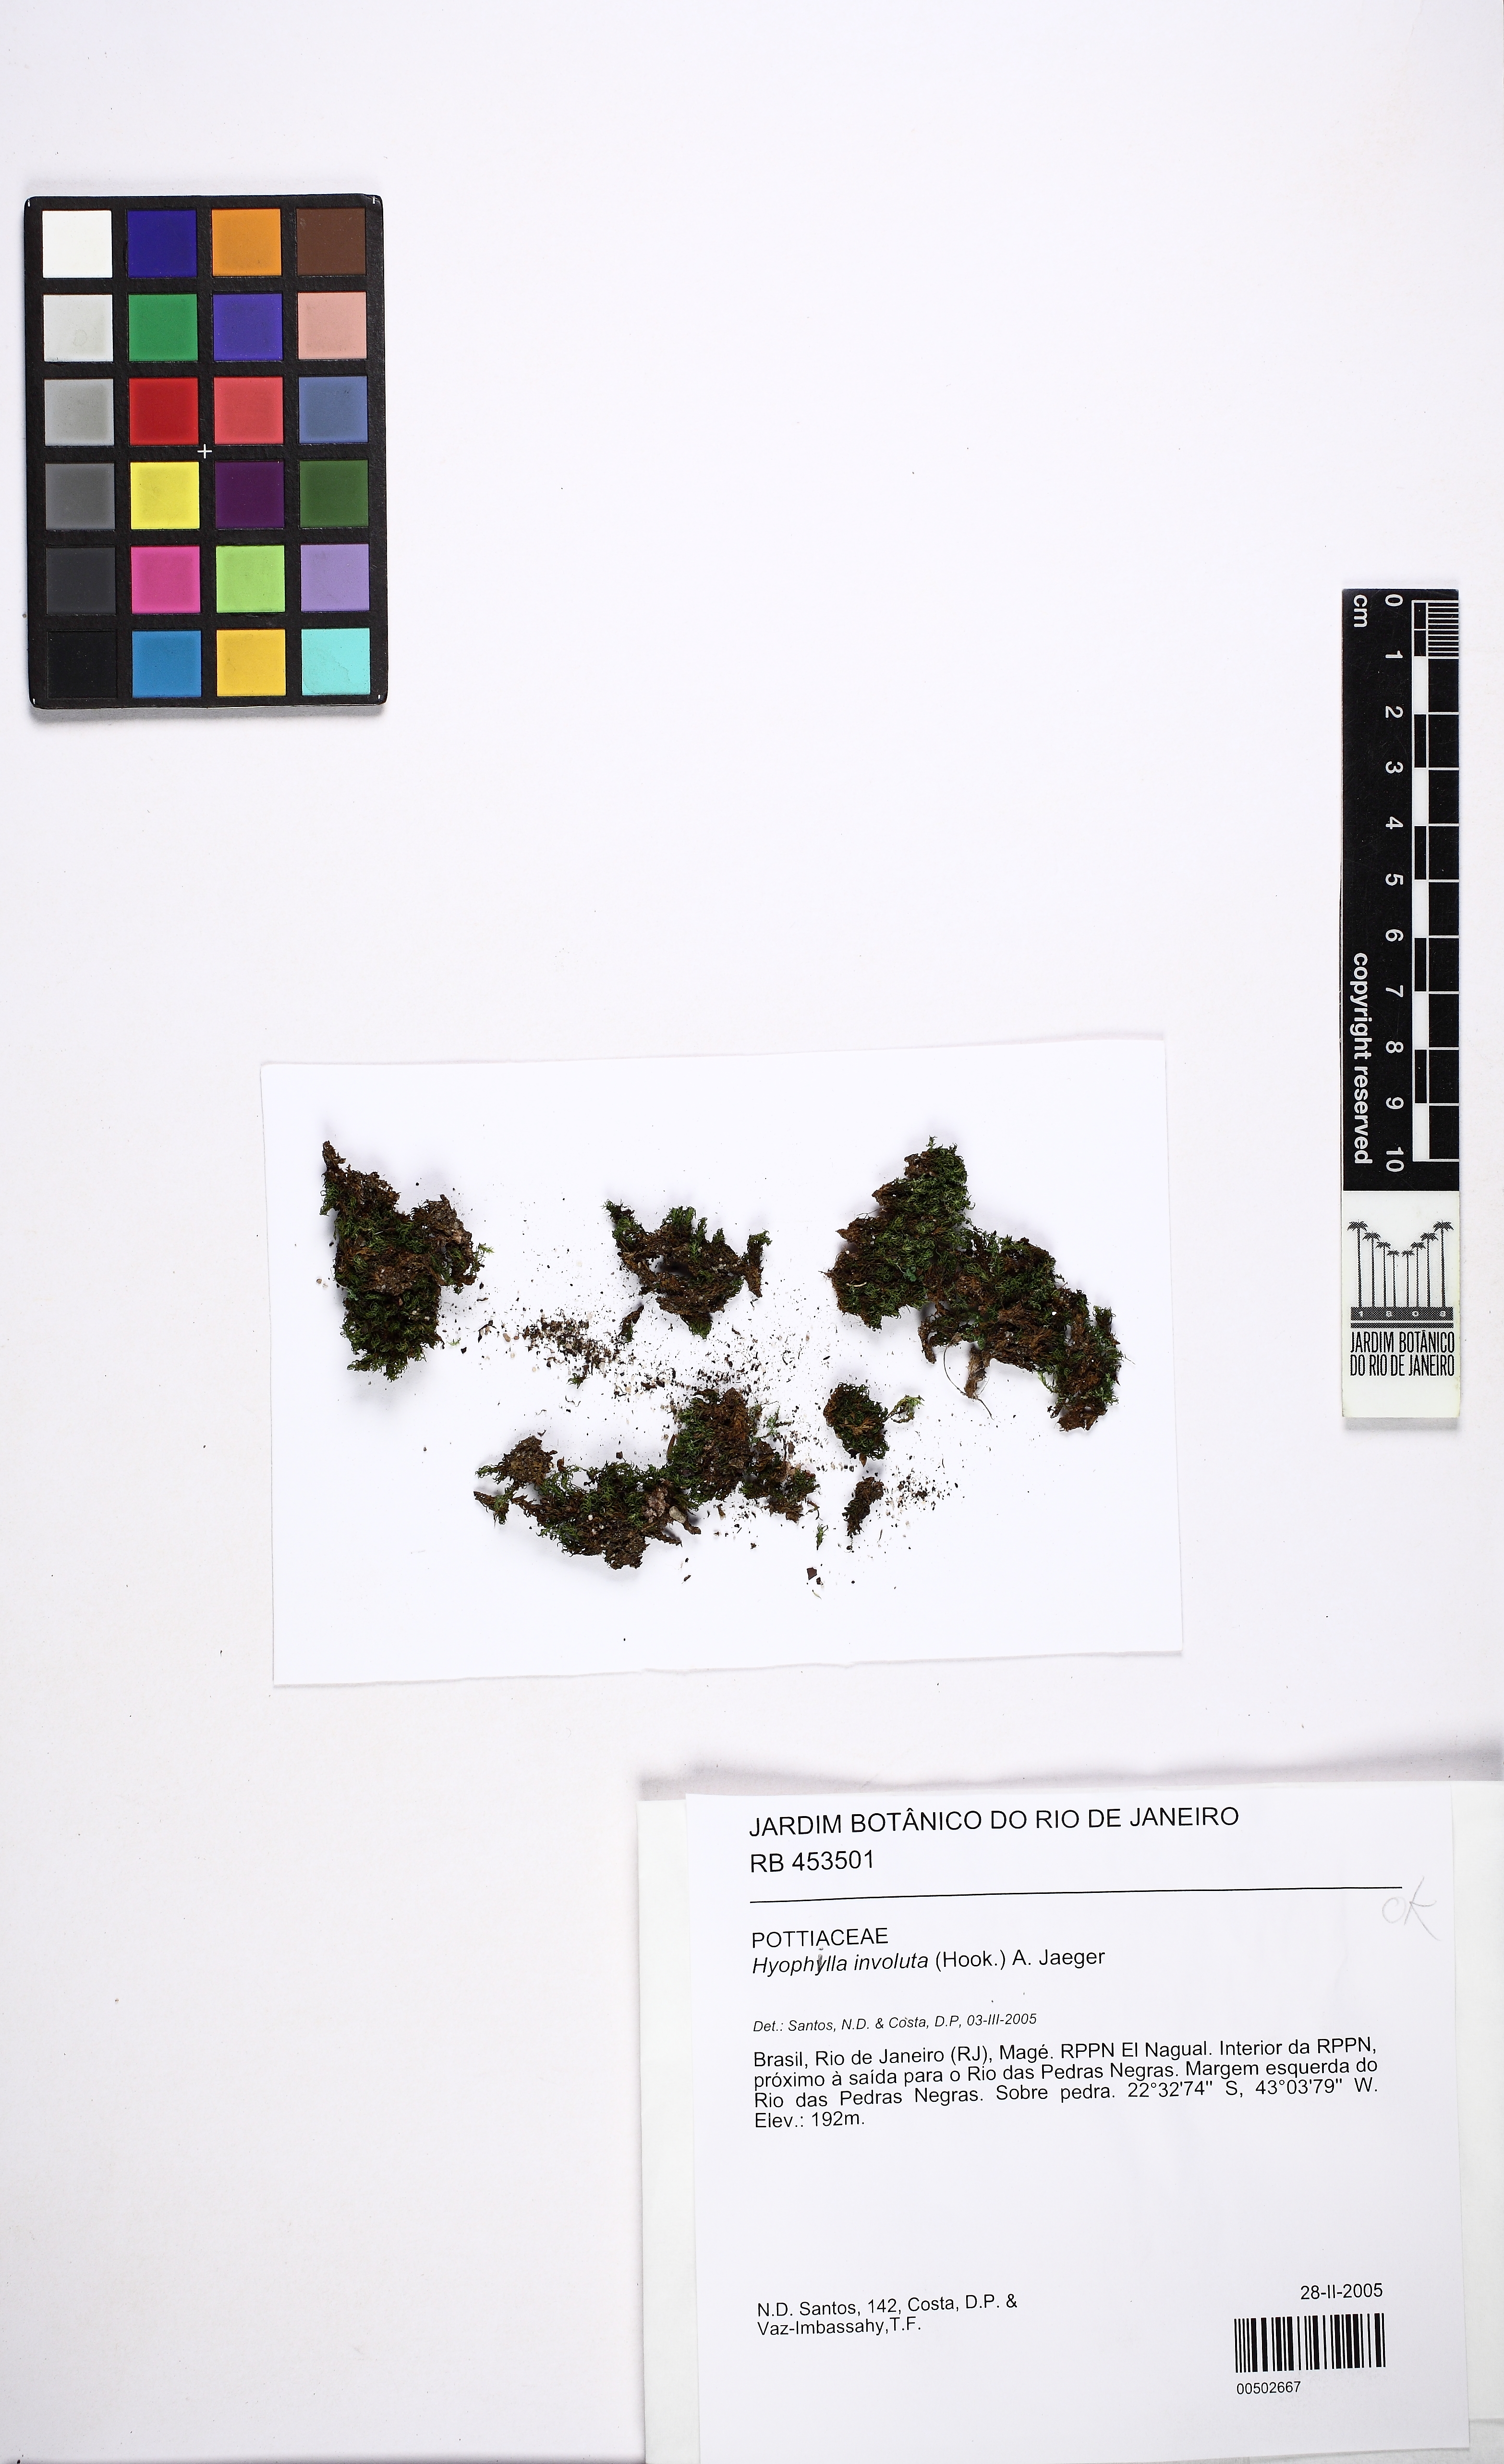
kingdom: Plantae
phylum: Bryophyta
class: Bryopsida
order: Pottiales
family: Pottiaceae
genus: Hyophila
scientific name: Hyophila involuta
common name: Hyophila moss
